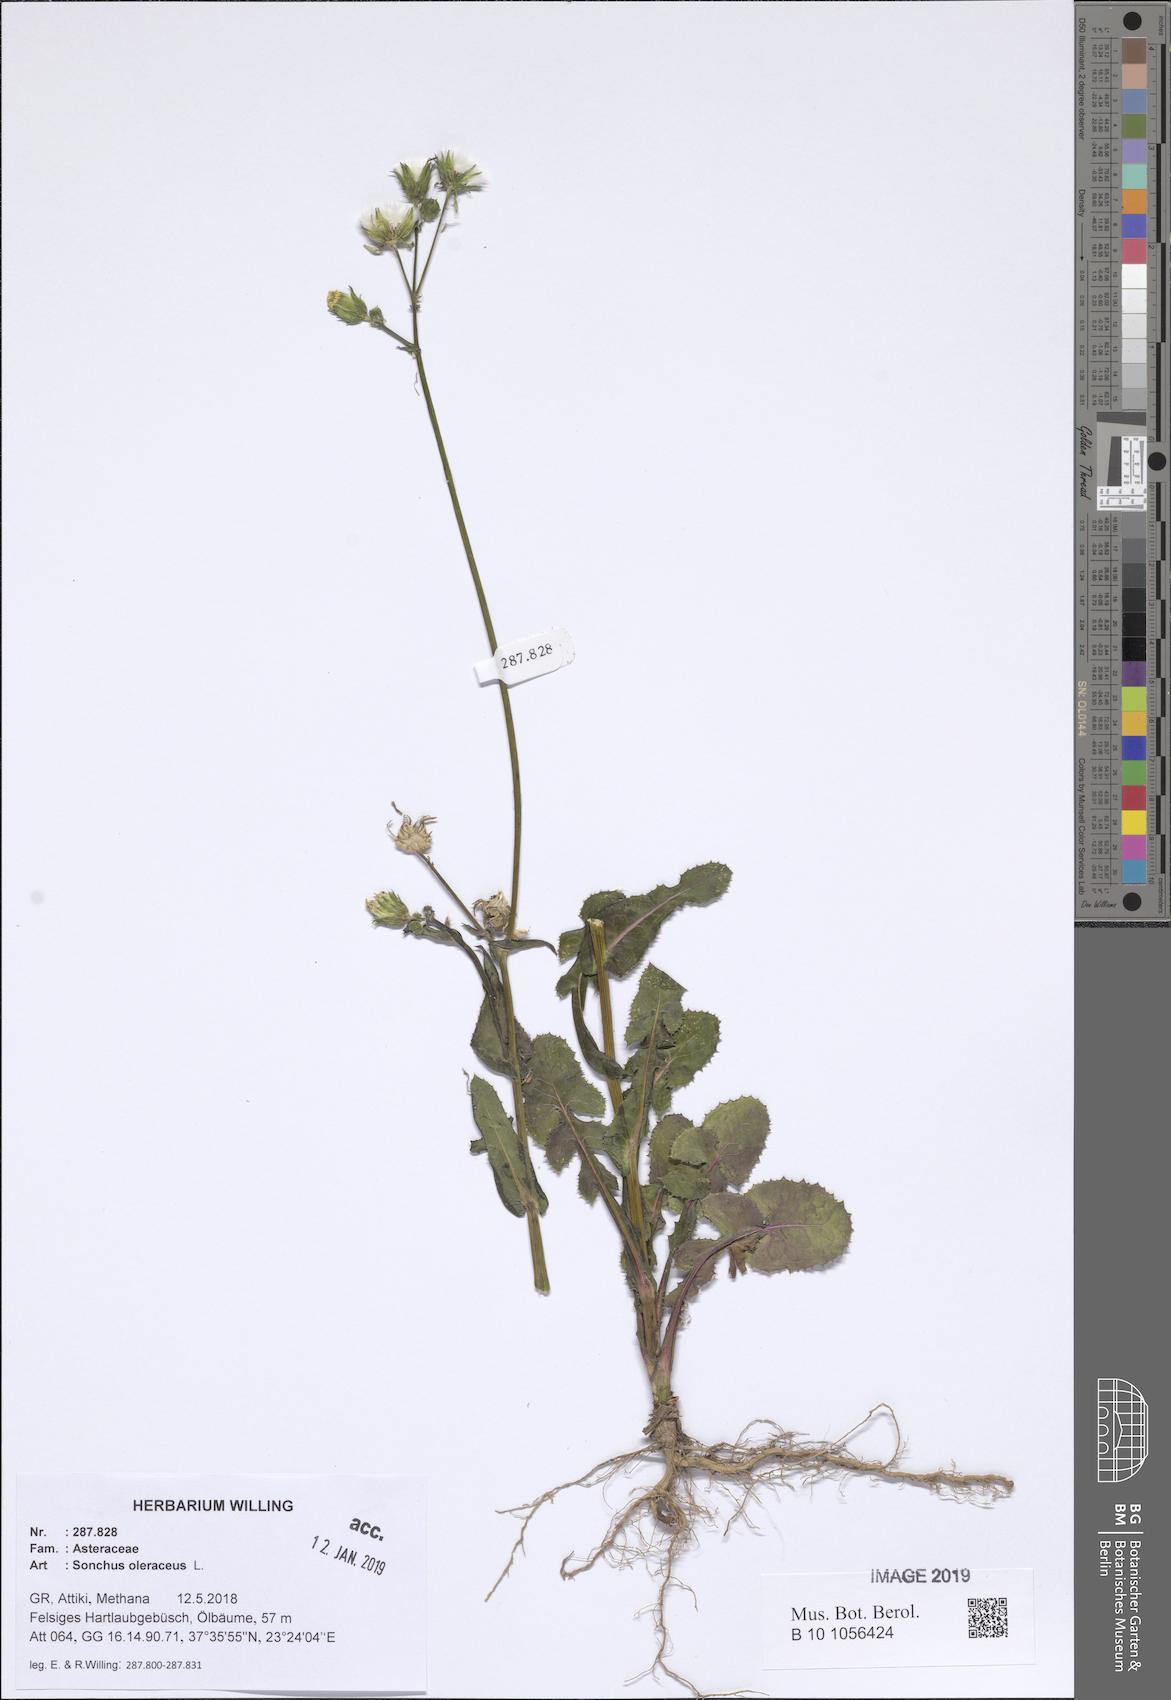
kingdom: Plantae
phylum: Tracheophyta
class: Magnoliopsida
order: Asterales
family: Asteraceae
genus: Sonchus
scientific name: Sonchus oleraceus
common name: Common sowthistle
